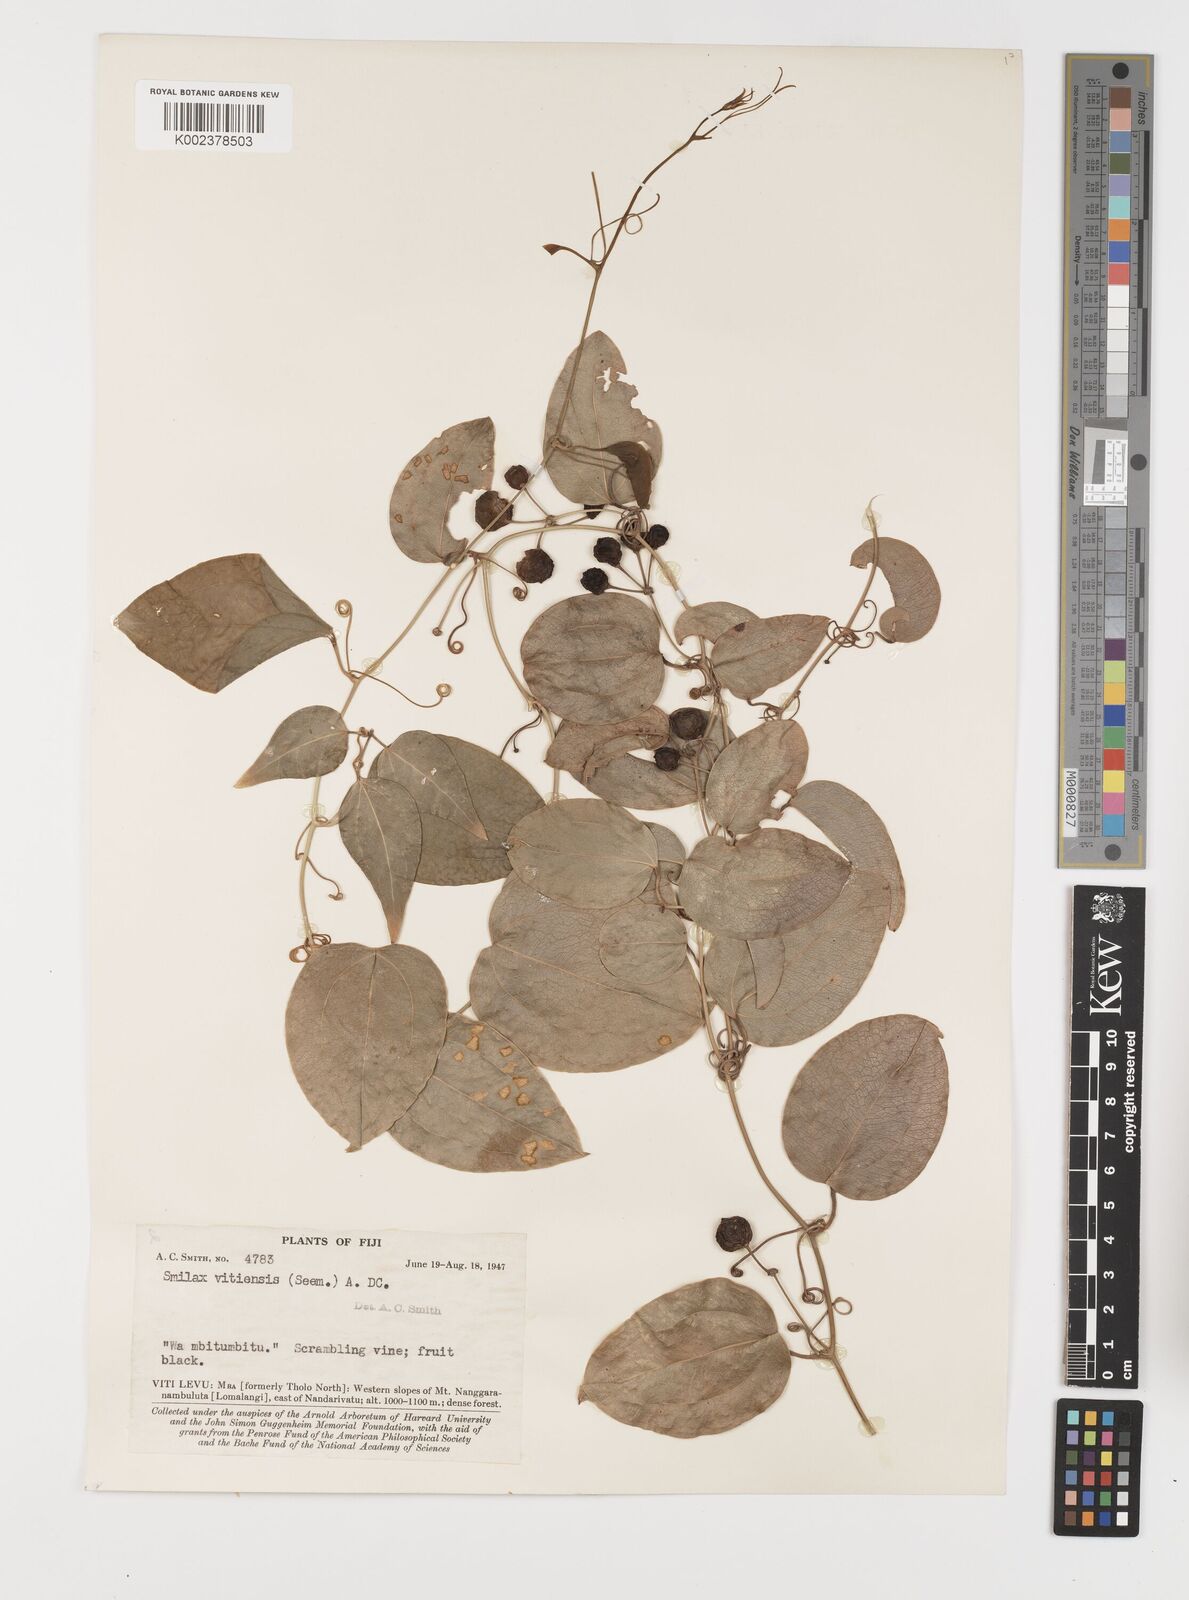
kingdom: Plantae
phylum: Tracheophyta
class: Liliopsida
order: Liliales
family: Smilacaceae
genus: Smilax
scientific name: Smilax vitiensis
